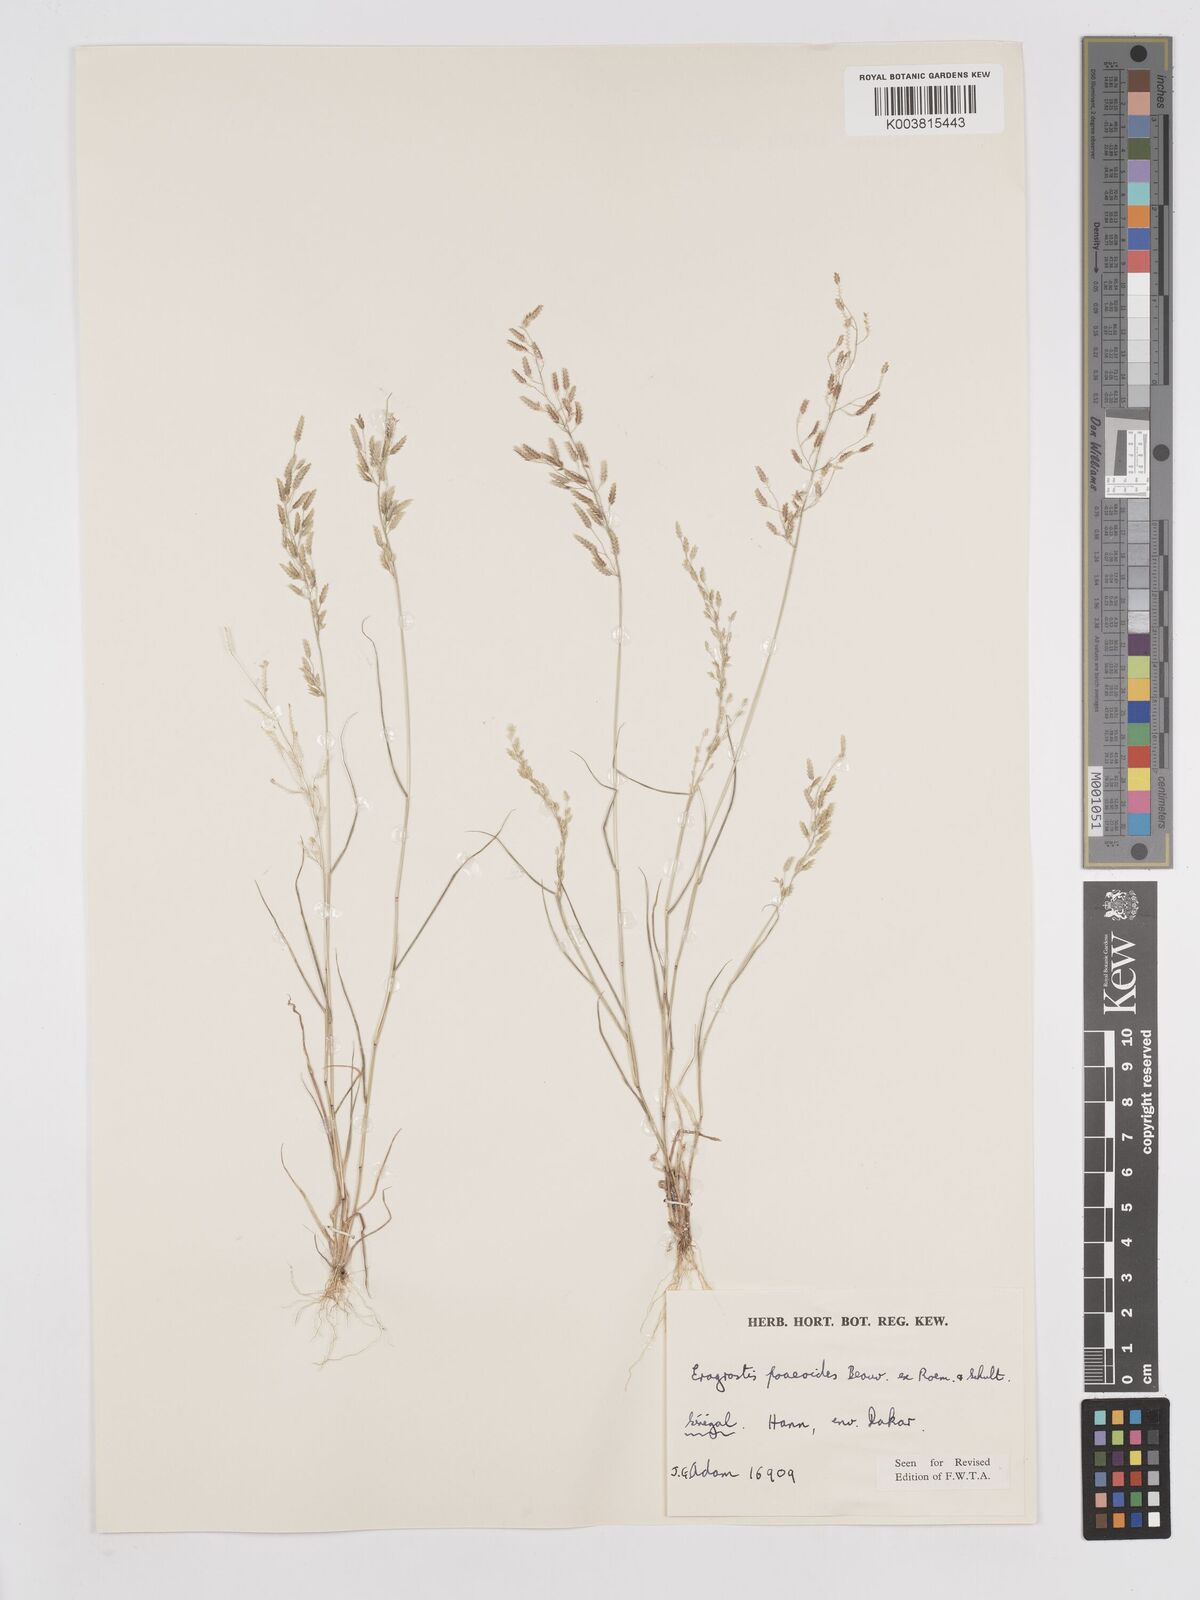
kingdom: Plantae
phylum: Tracheophyta
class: Liliopsida
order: Poales
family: Poaceae
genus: Eragrostis
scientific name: Eragrostis minor
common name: Small love-grass
